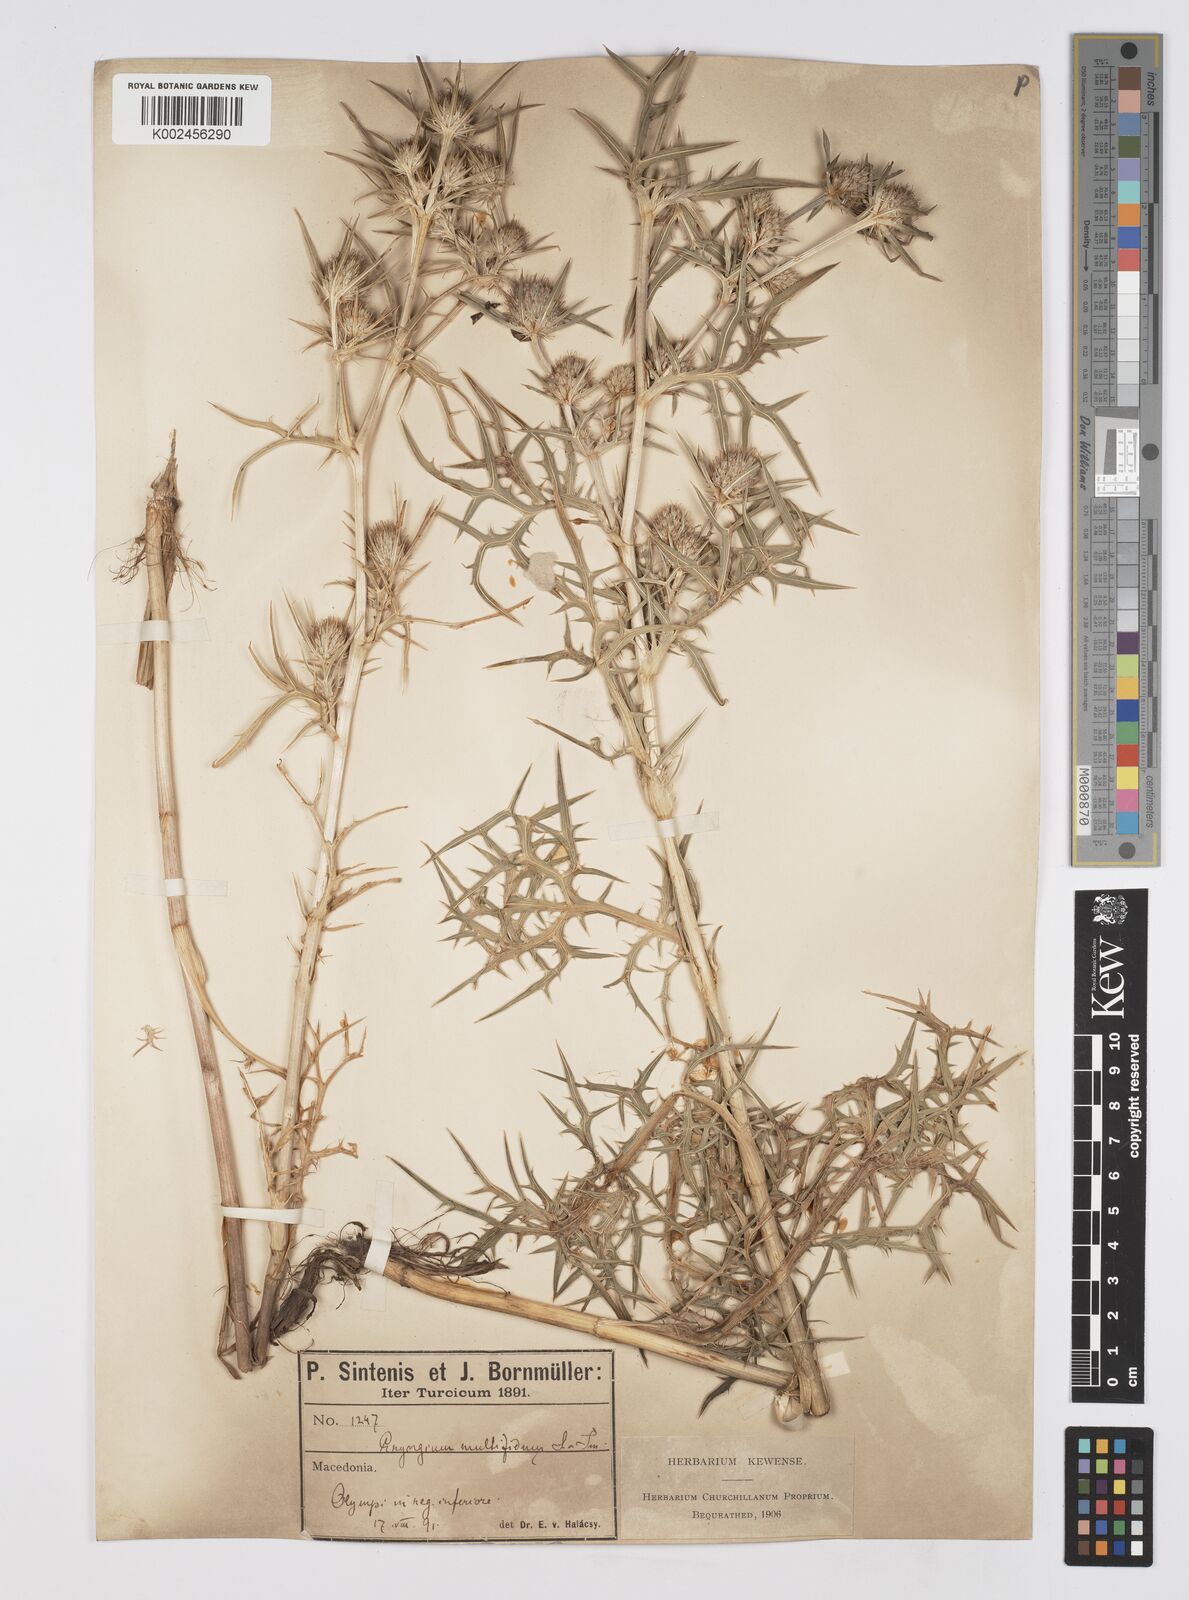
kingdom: Plantae
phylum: Tracheophyta
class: Magnoliopsida
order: Apiales
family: Apiaceae
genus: Eryngium
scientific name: Eryngium amethystinum
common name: Amethyst eryngo
